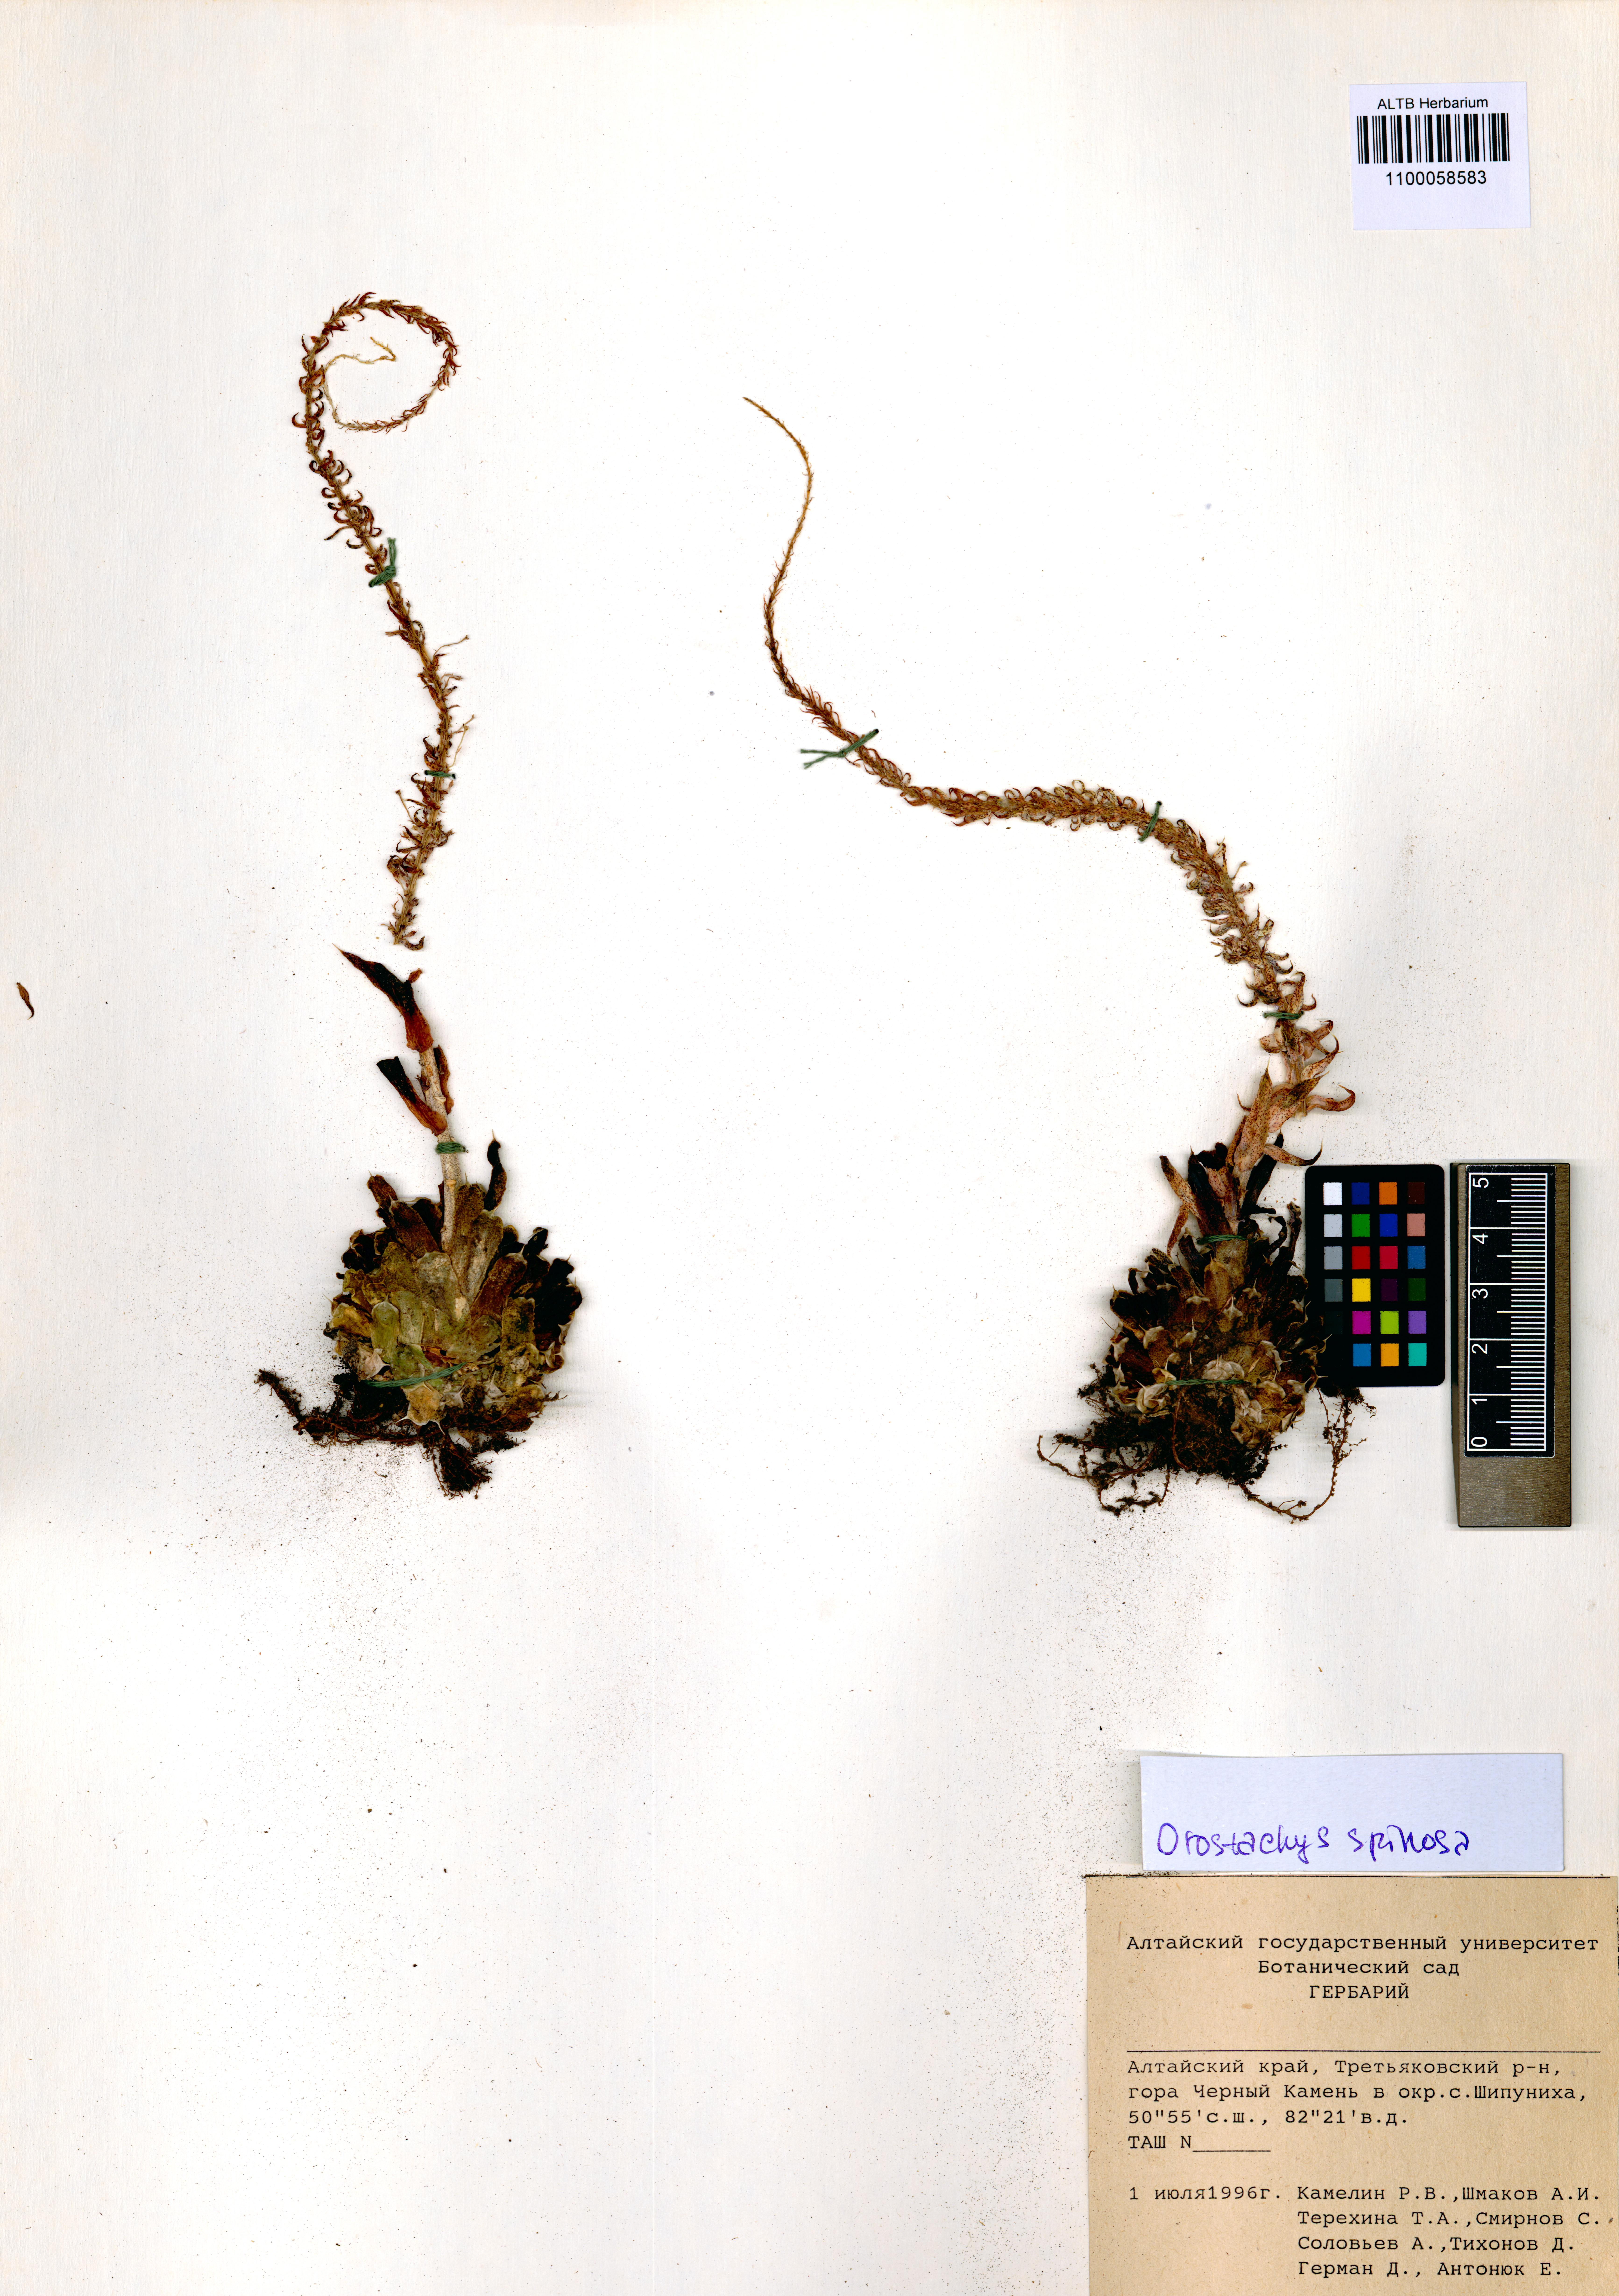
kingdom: Plantae
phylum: Tracheophyta
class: Magnoliopsida
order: Saxifragales
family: Crassulaceae
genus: Orostachys
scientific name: Orostachys spinosa
